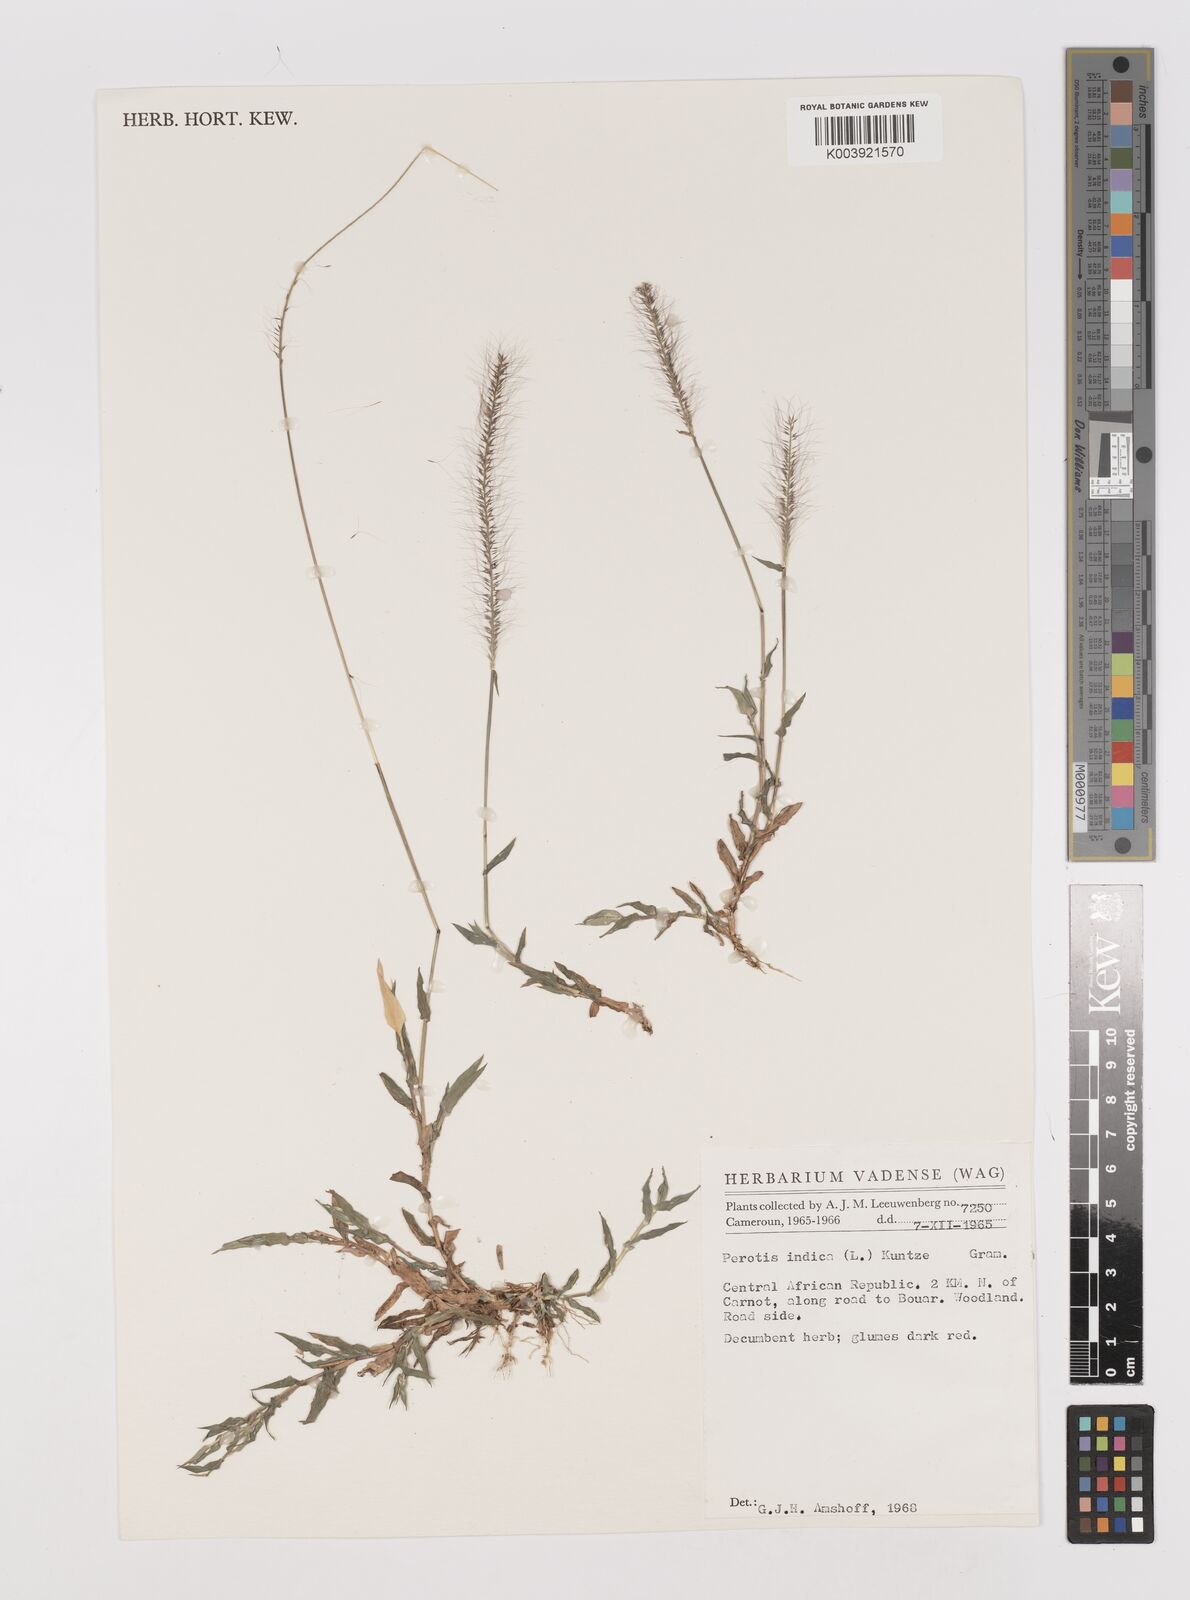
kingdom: Plantae
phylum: Tracheophyta
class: Liliopsida
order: Poales
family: Poaceae
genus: Perotis
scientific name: Perotis indica
